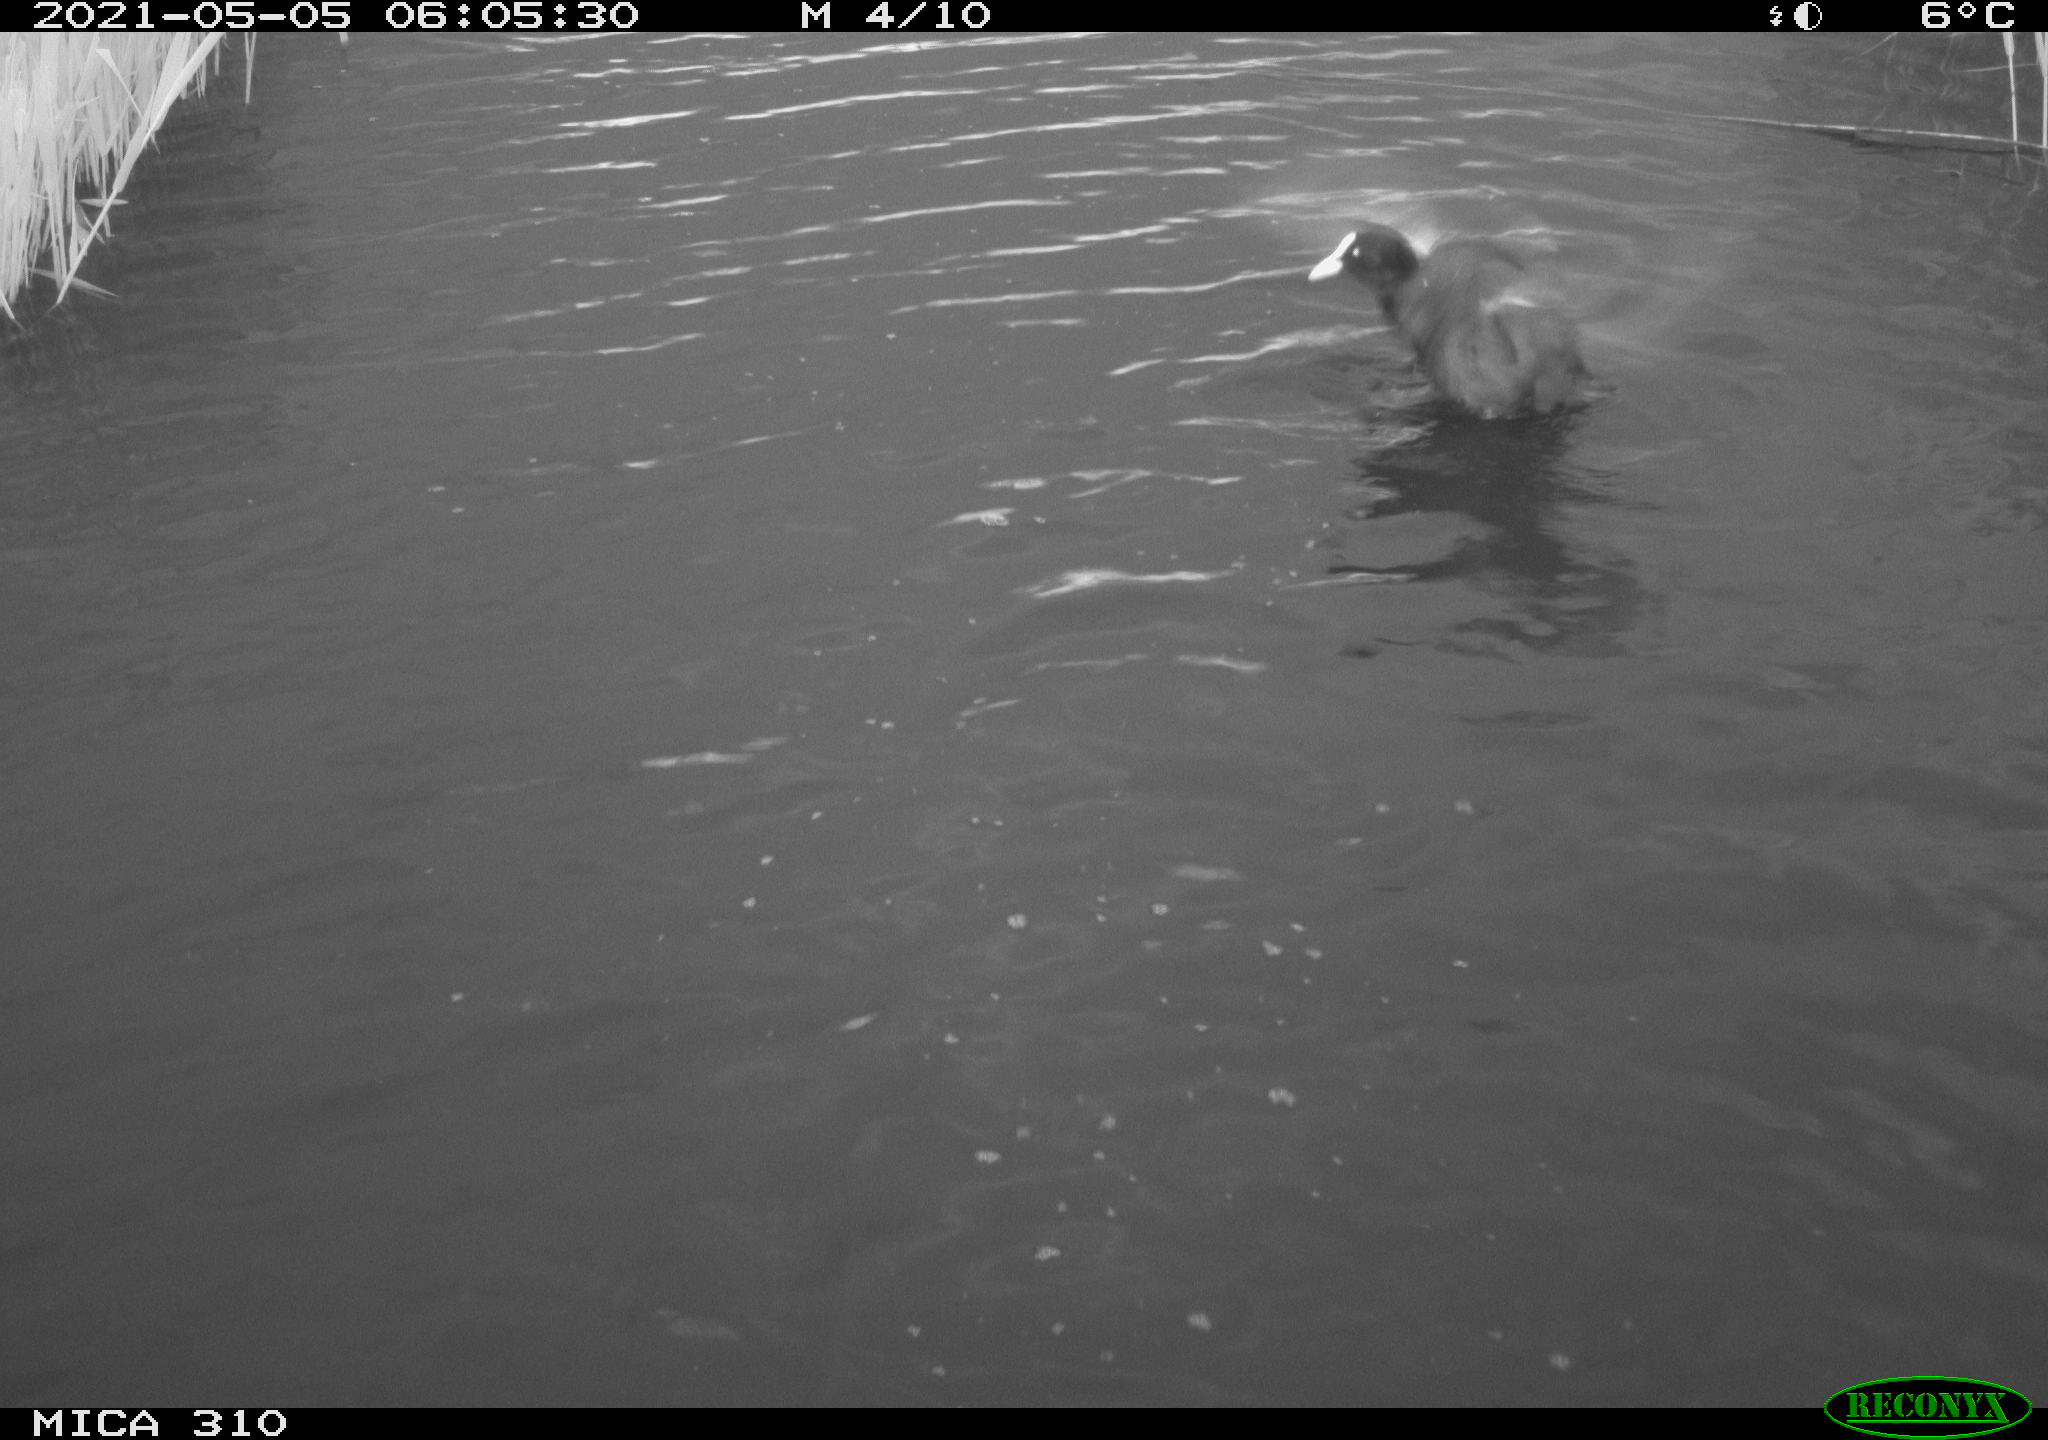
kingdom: Animalia
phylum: Chordata
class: Aves
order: Gruiformes
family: Rallidae
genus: Fulica
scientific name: Fulica atra
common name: Eurasian coot
